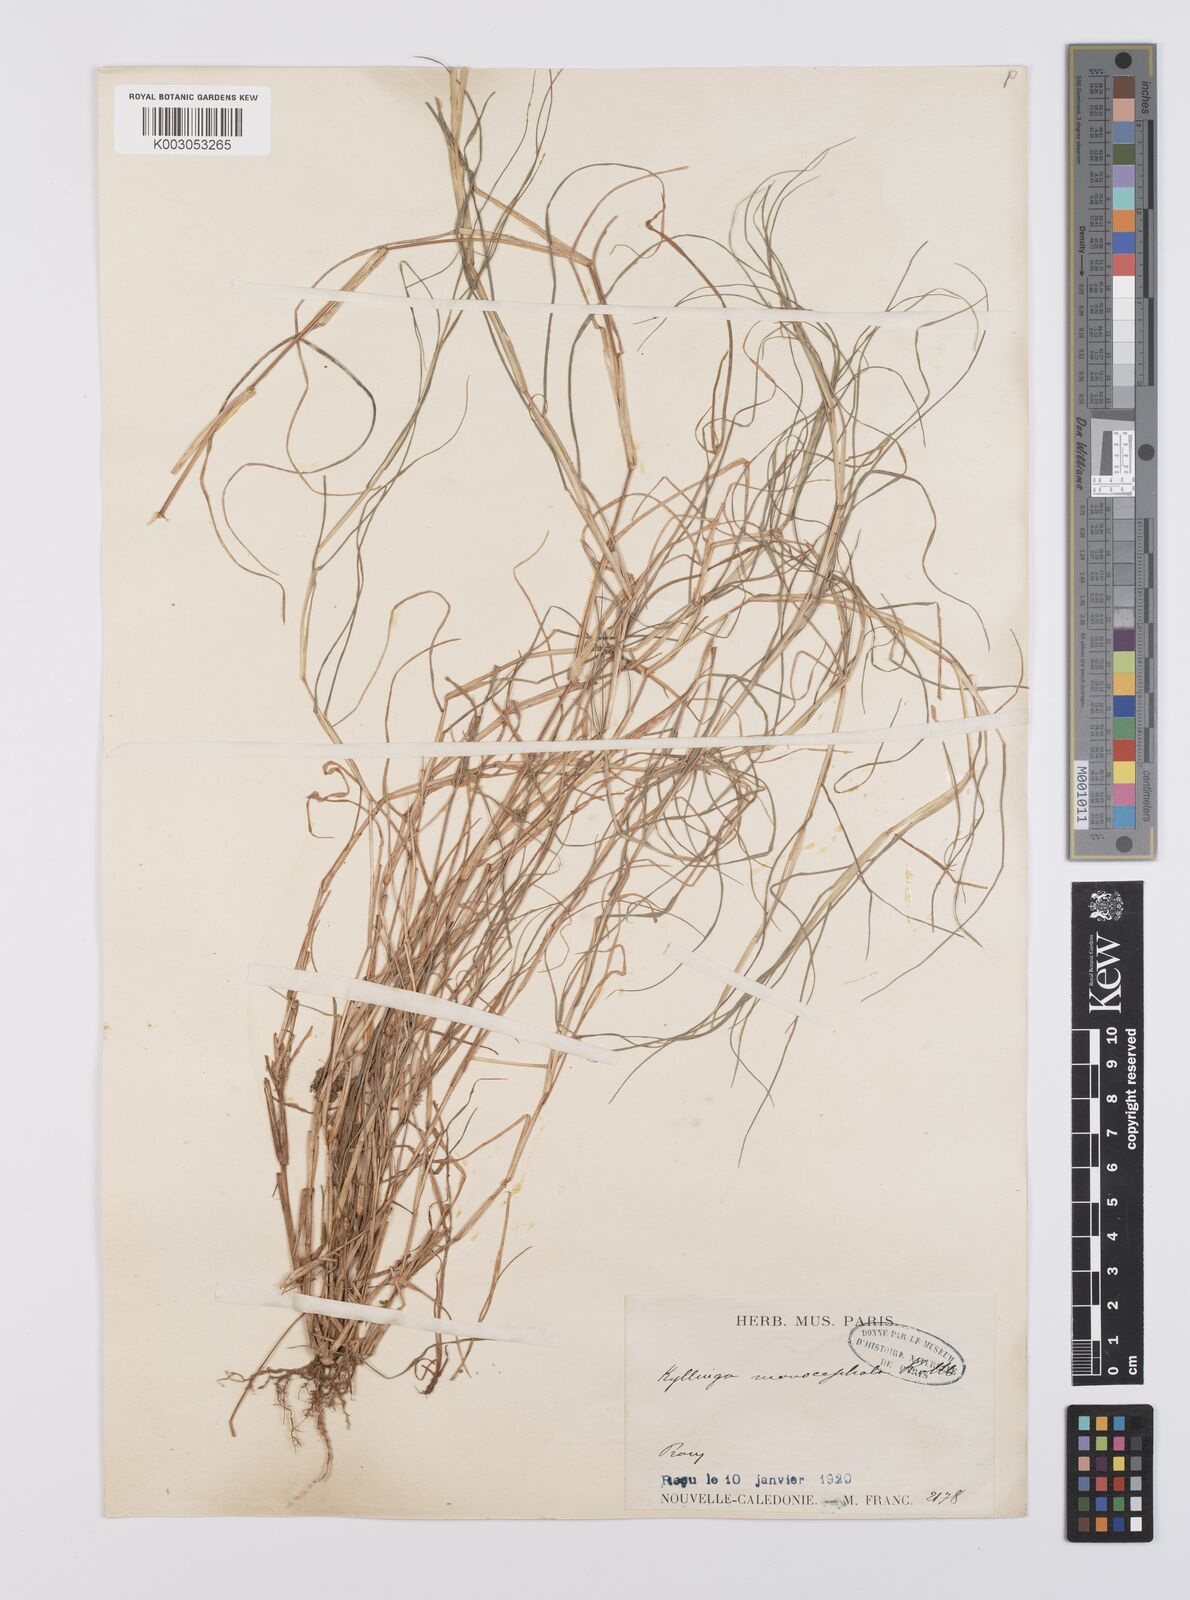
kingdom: Plantae
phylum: Tracheophyta
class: Liliopsida
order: Poales
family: Poaceae
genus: Cynodon
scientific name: Cynodon dactylon
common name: Bermuda grass
